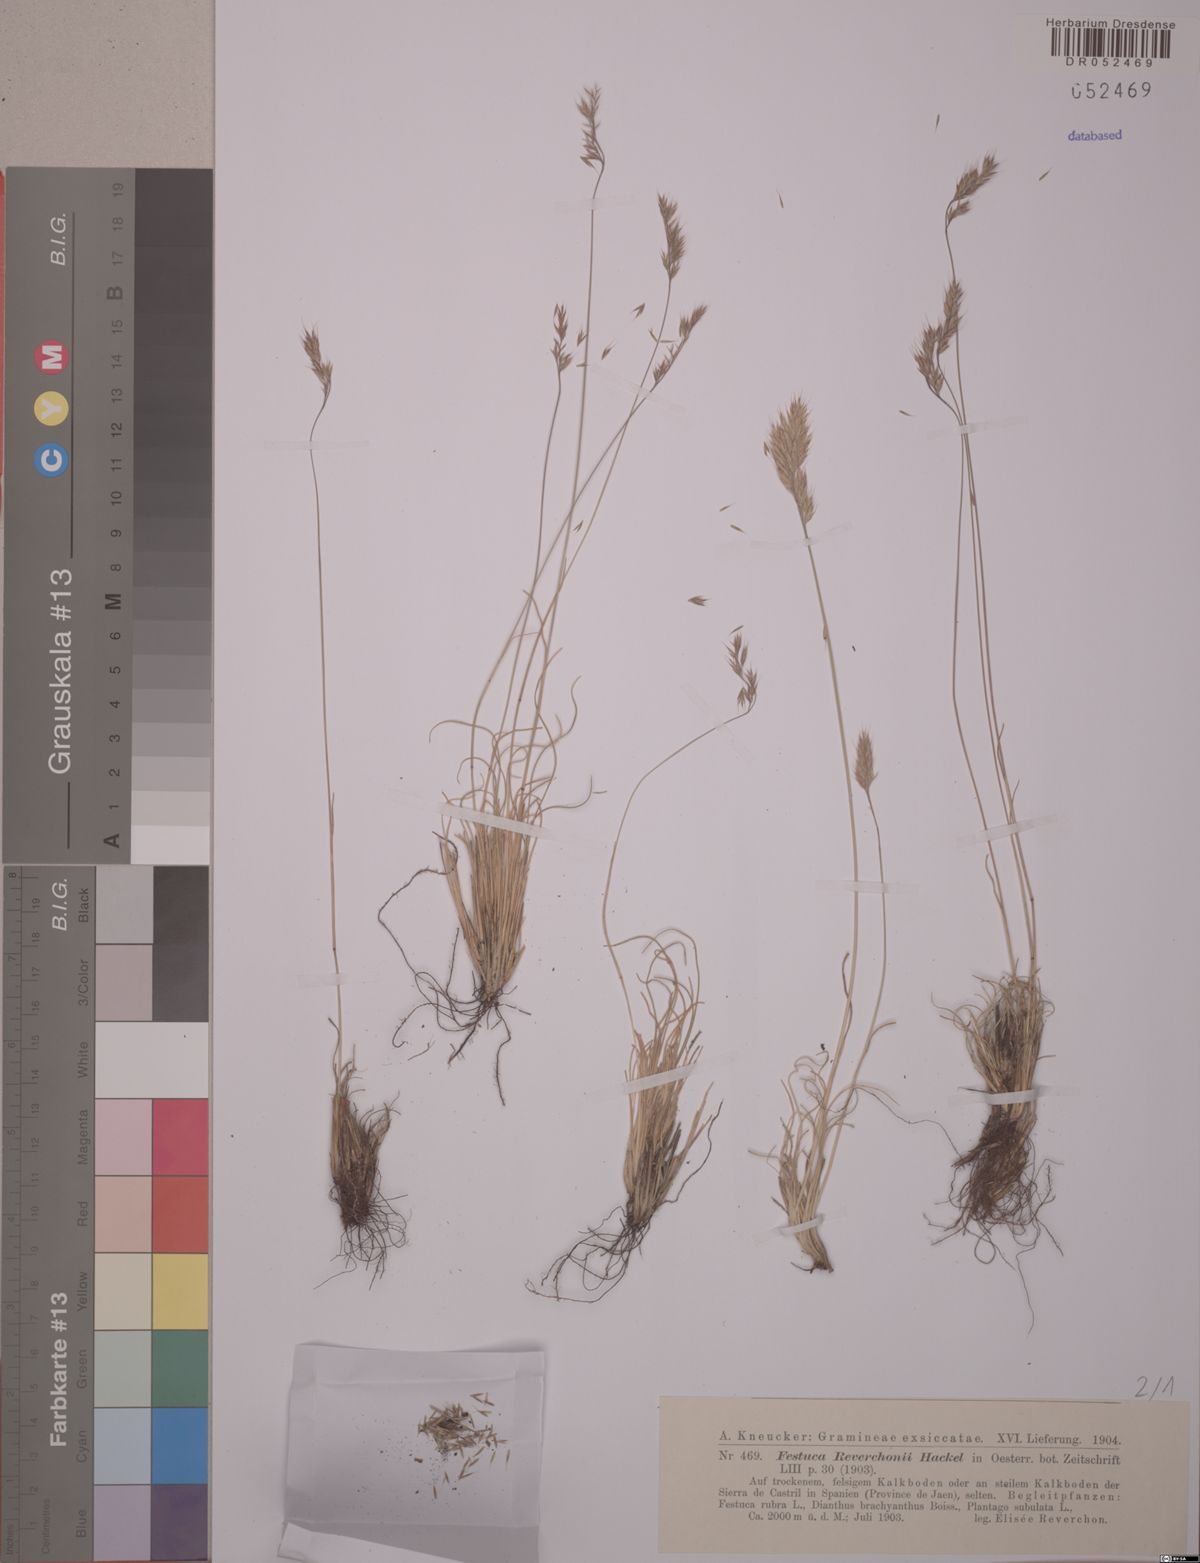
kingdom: Plantae
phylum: Tracheophyta
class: Liliopsida
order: Poales
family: Poaceae
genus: Festuca
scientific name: Festuca reverchonii
